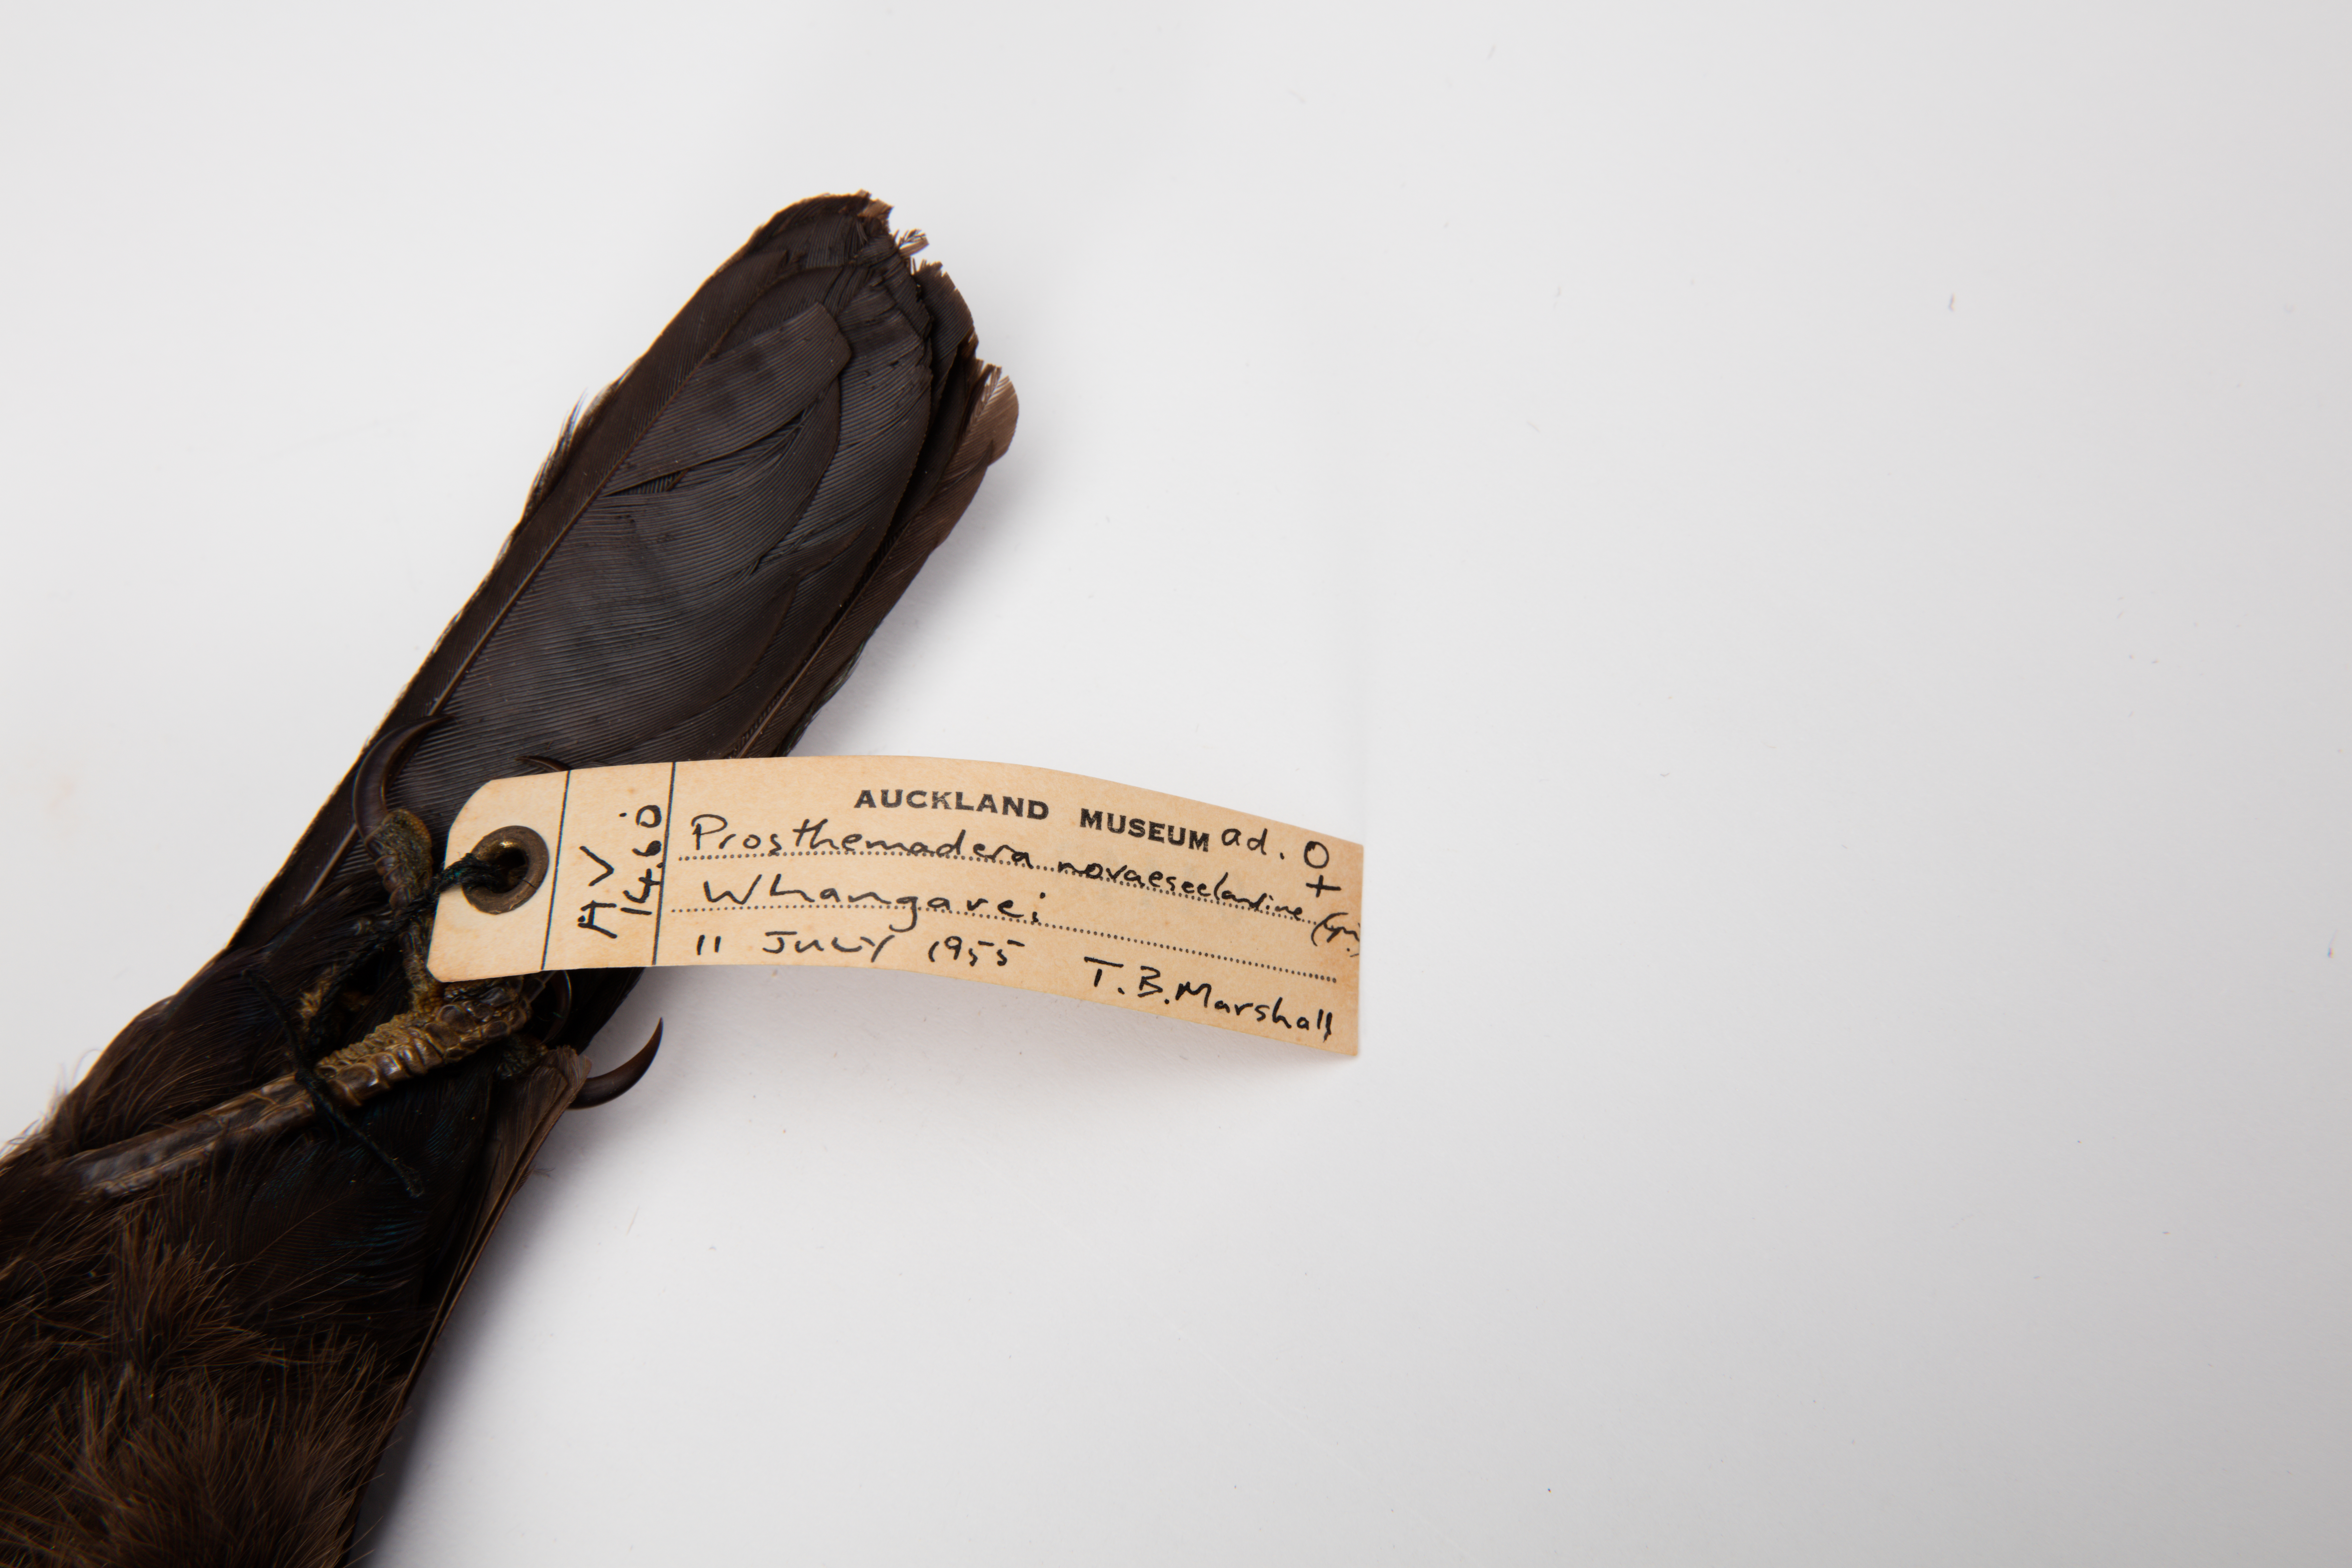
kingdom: Animalia
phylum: Chordata
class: Aves
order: Passeriformes
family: Meliphagidae
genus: Prosthemadera
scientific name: Prosthemadera novaeseelandiae
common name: Tui
